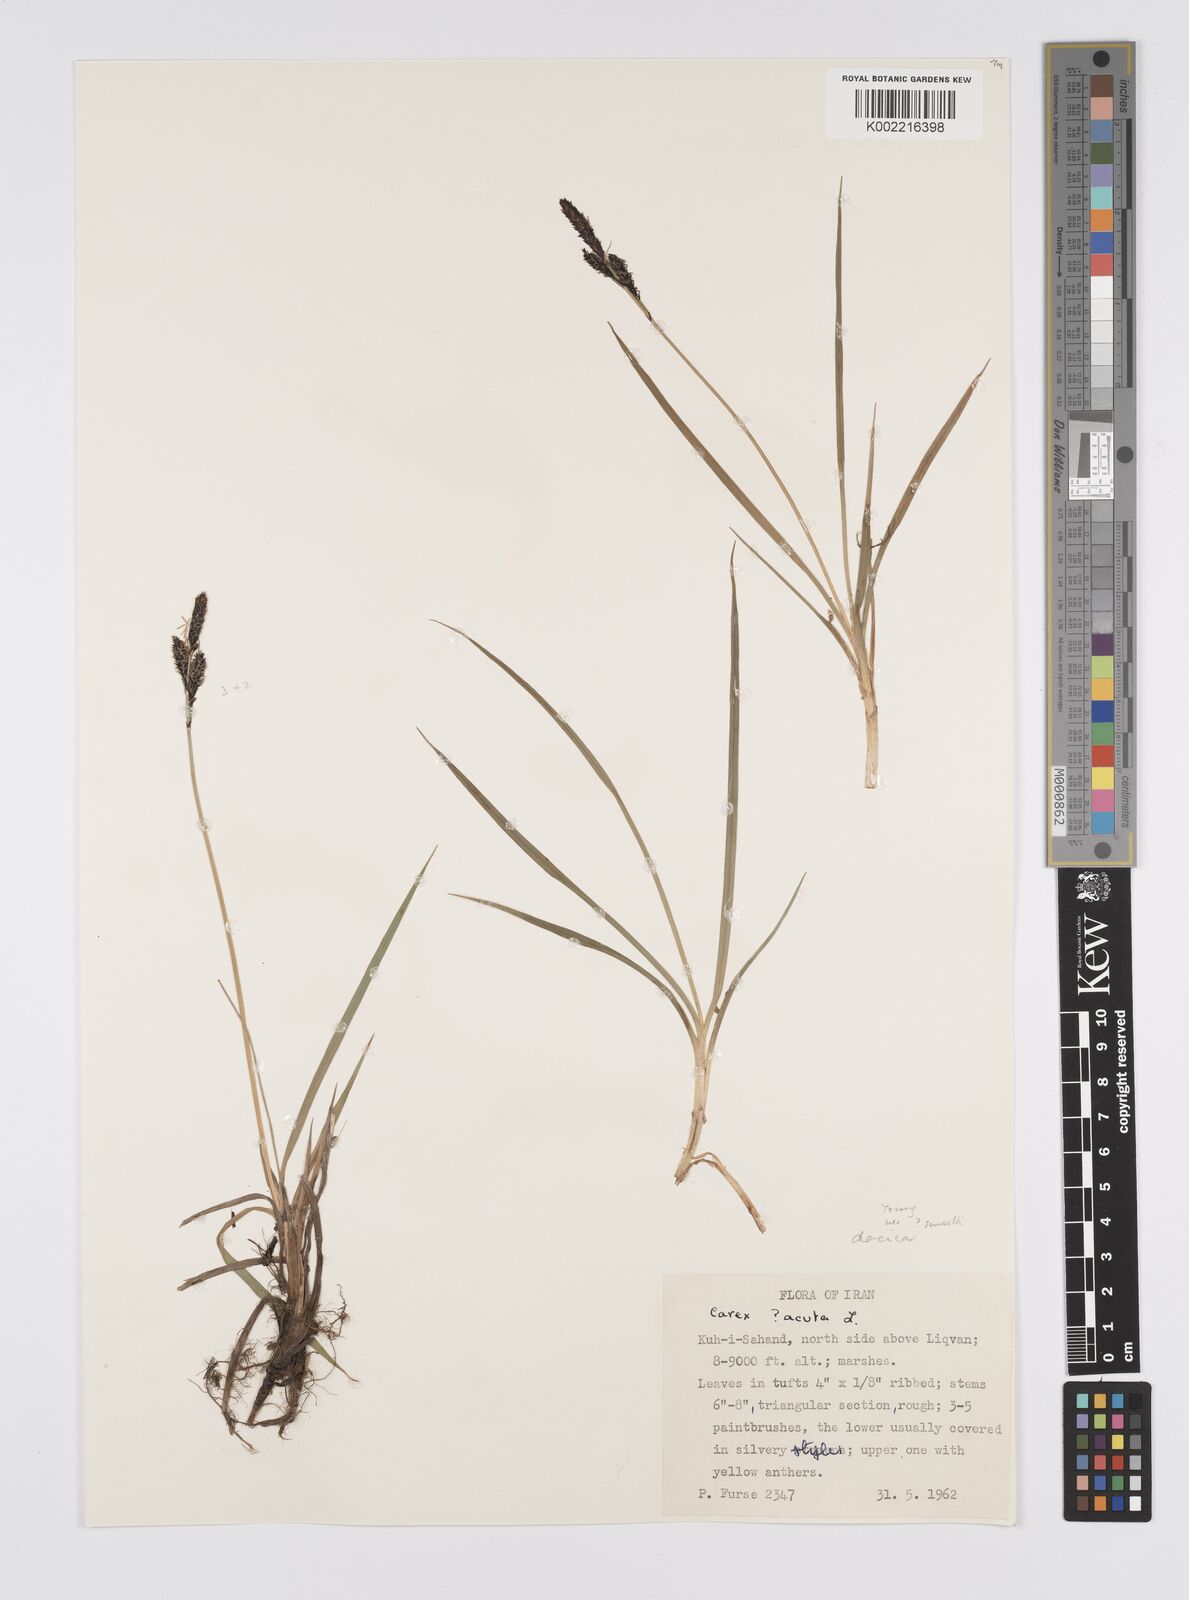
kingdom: Plantae
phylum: Tracheophyta
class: Liliopsida
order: Poales
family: Cyperaceae
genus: Carex
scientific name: Carex dacica
